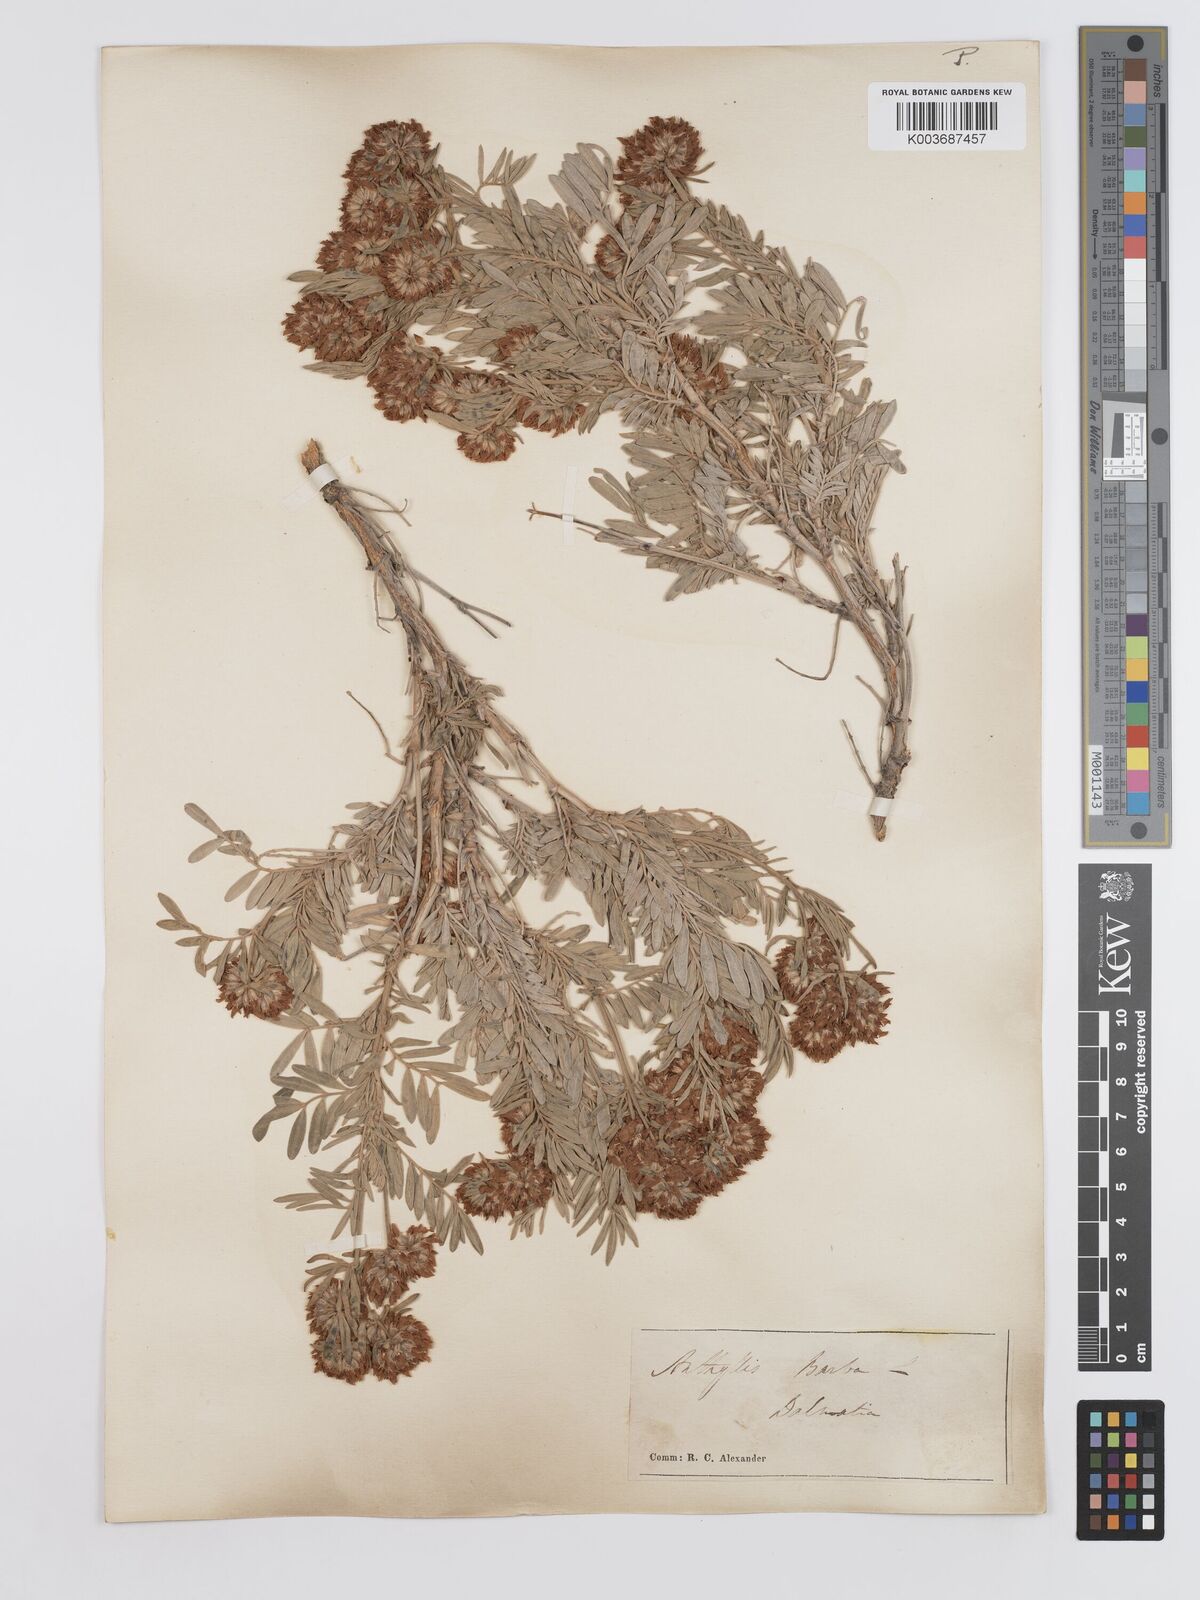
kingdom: Plantae
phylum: Tracheophyta
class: Magnoliopsida
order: Fabales
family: Fabaceae
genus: Anthyllis
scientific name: Anthyllis barba-jovis
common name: Jupiter's-beard
